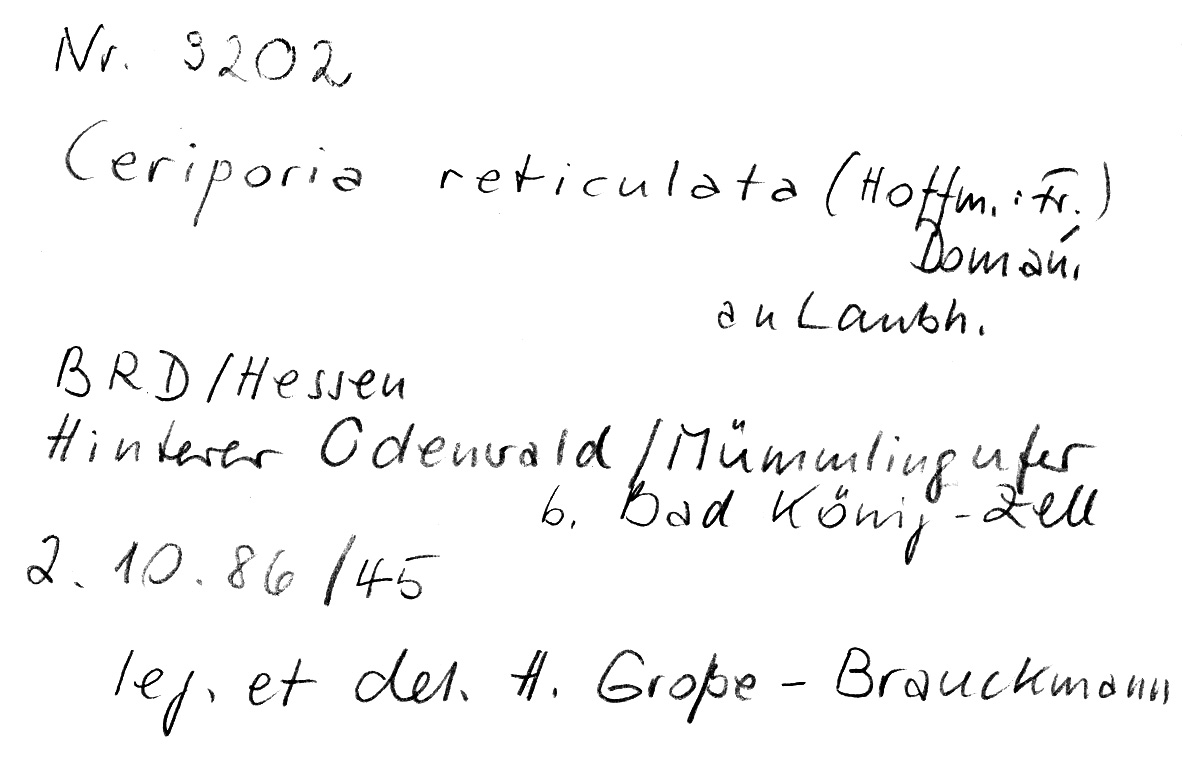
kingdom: Fungi
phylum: Basidiomycota
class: Agaricomycetes
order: Polyporales
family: Irpicaceae
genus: Ceriporia
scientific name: Ceriporia reticulata
